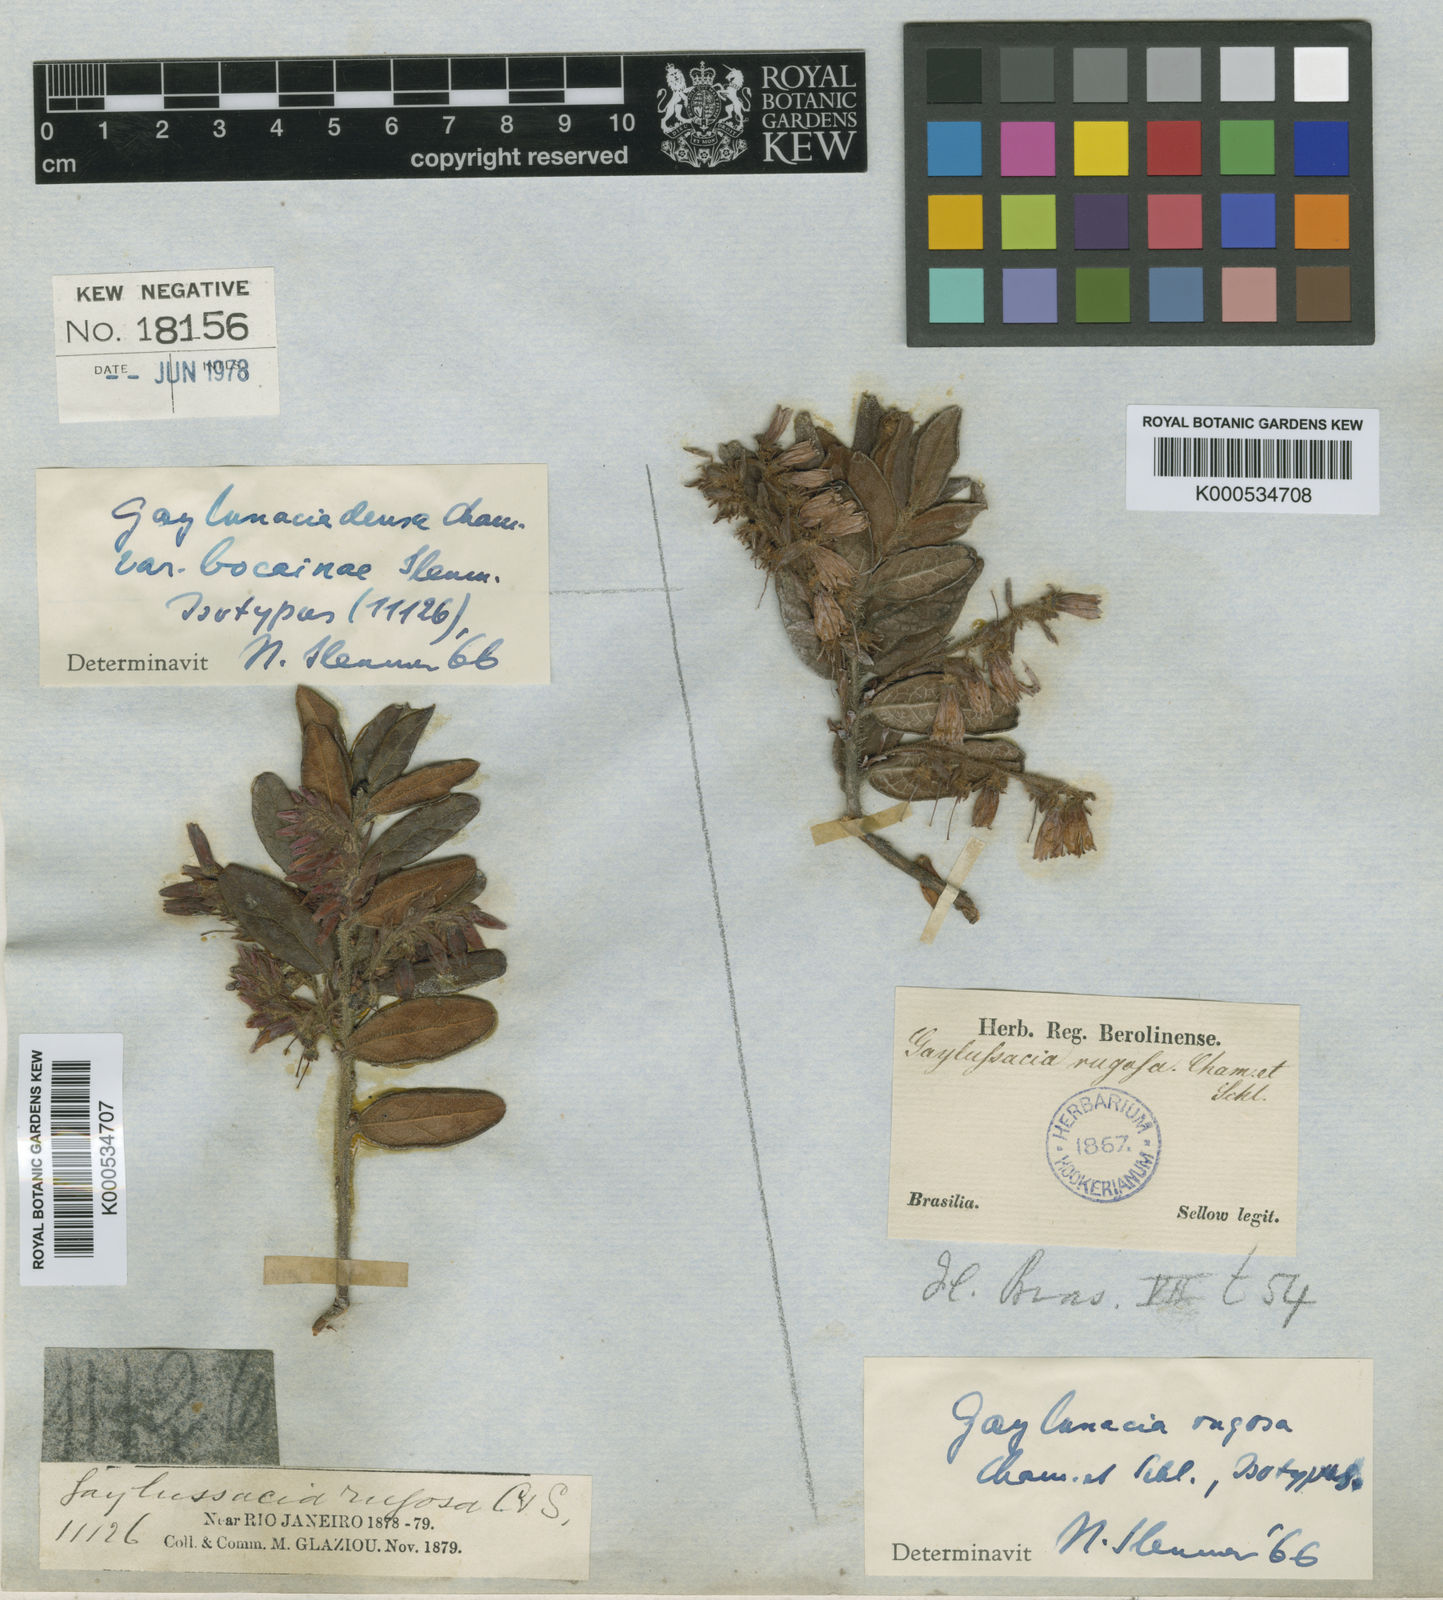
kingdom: Plantae
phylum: Tracheophyta
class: Magnoliopsida
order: Ericales
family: Ericaceae
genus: Gaylussacia
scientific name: Gaylussacia rugosa
